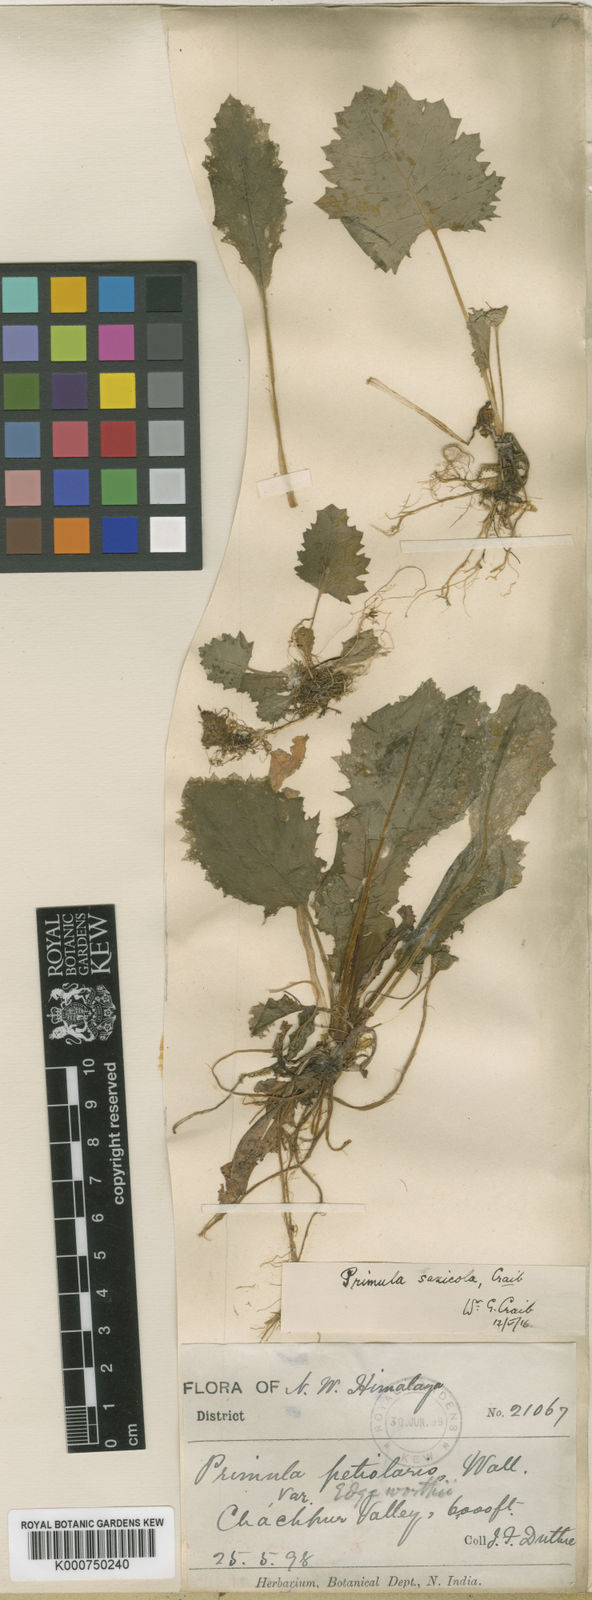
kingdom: Plantae
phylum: Tracheophyta
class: Magnoliopsida
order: Ericales
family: Primulaceae
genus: Primula
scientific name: Primula nana
